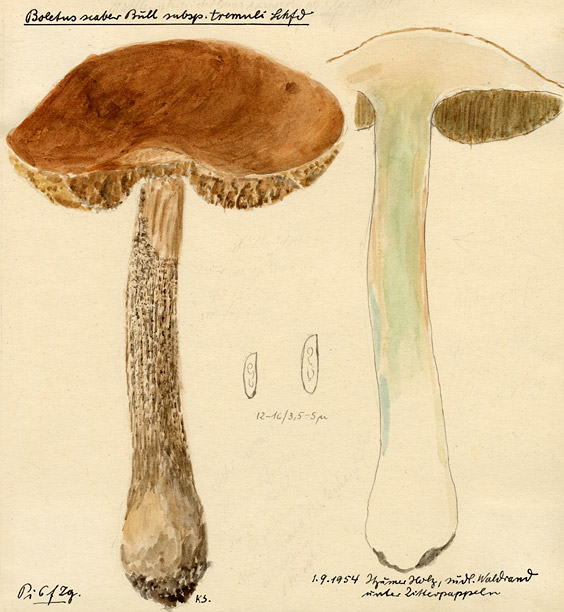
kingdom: Plantae
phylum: Tracheophyta
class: Magnoliopsida
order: Malpighiales
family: Salicaceae
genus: Populus
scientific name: Populus tremula
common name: European aspen
